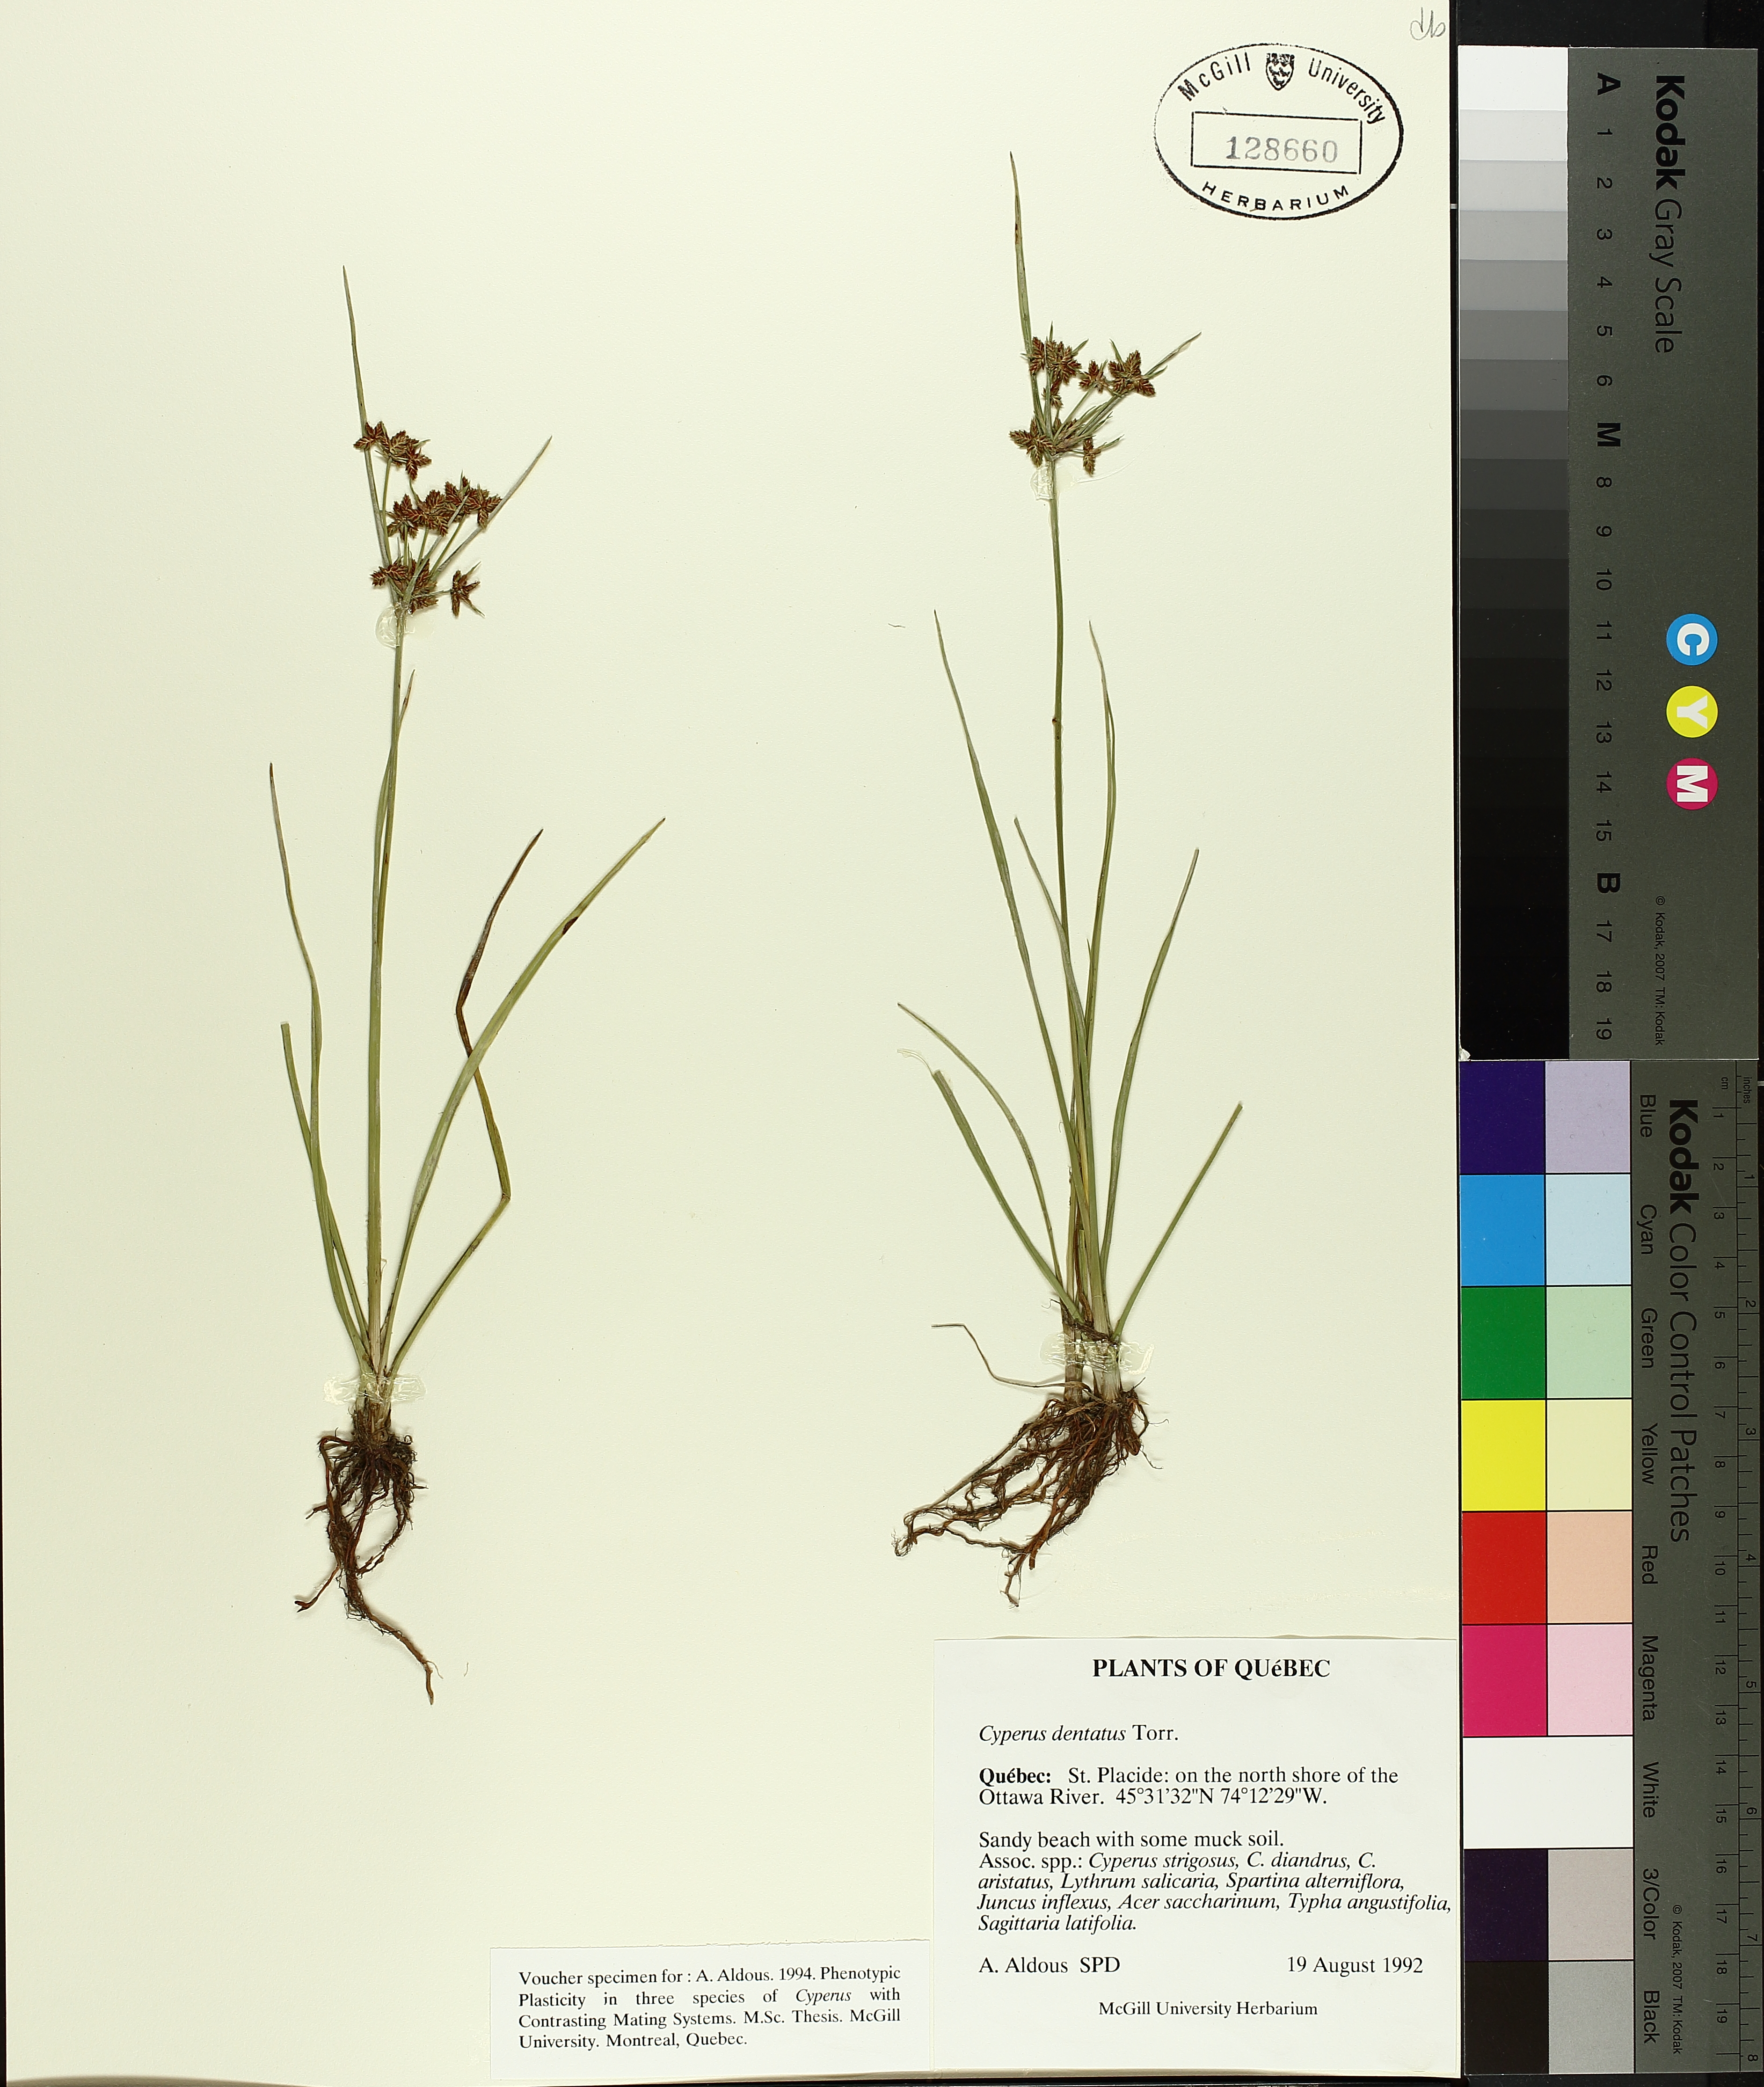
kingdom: Plantae
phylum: Tracheophyta
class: Liliopsida
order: Poales
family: Cyperaceae
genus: Cyperus
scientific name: Cyperus dentatus
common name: Dentate umbrella sedge
